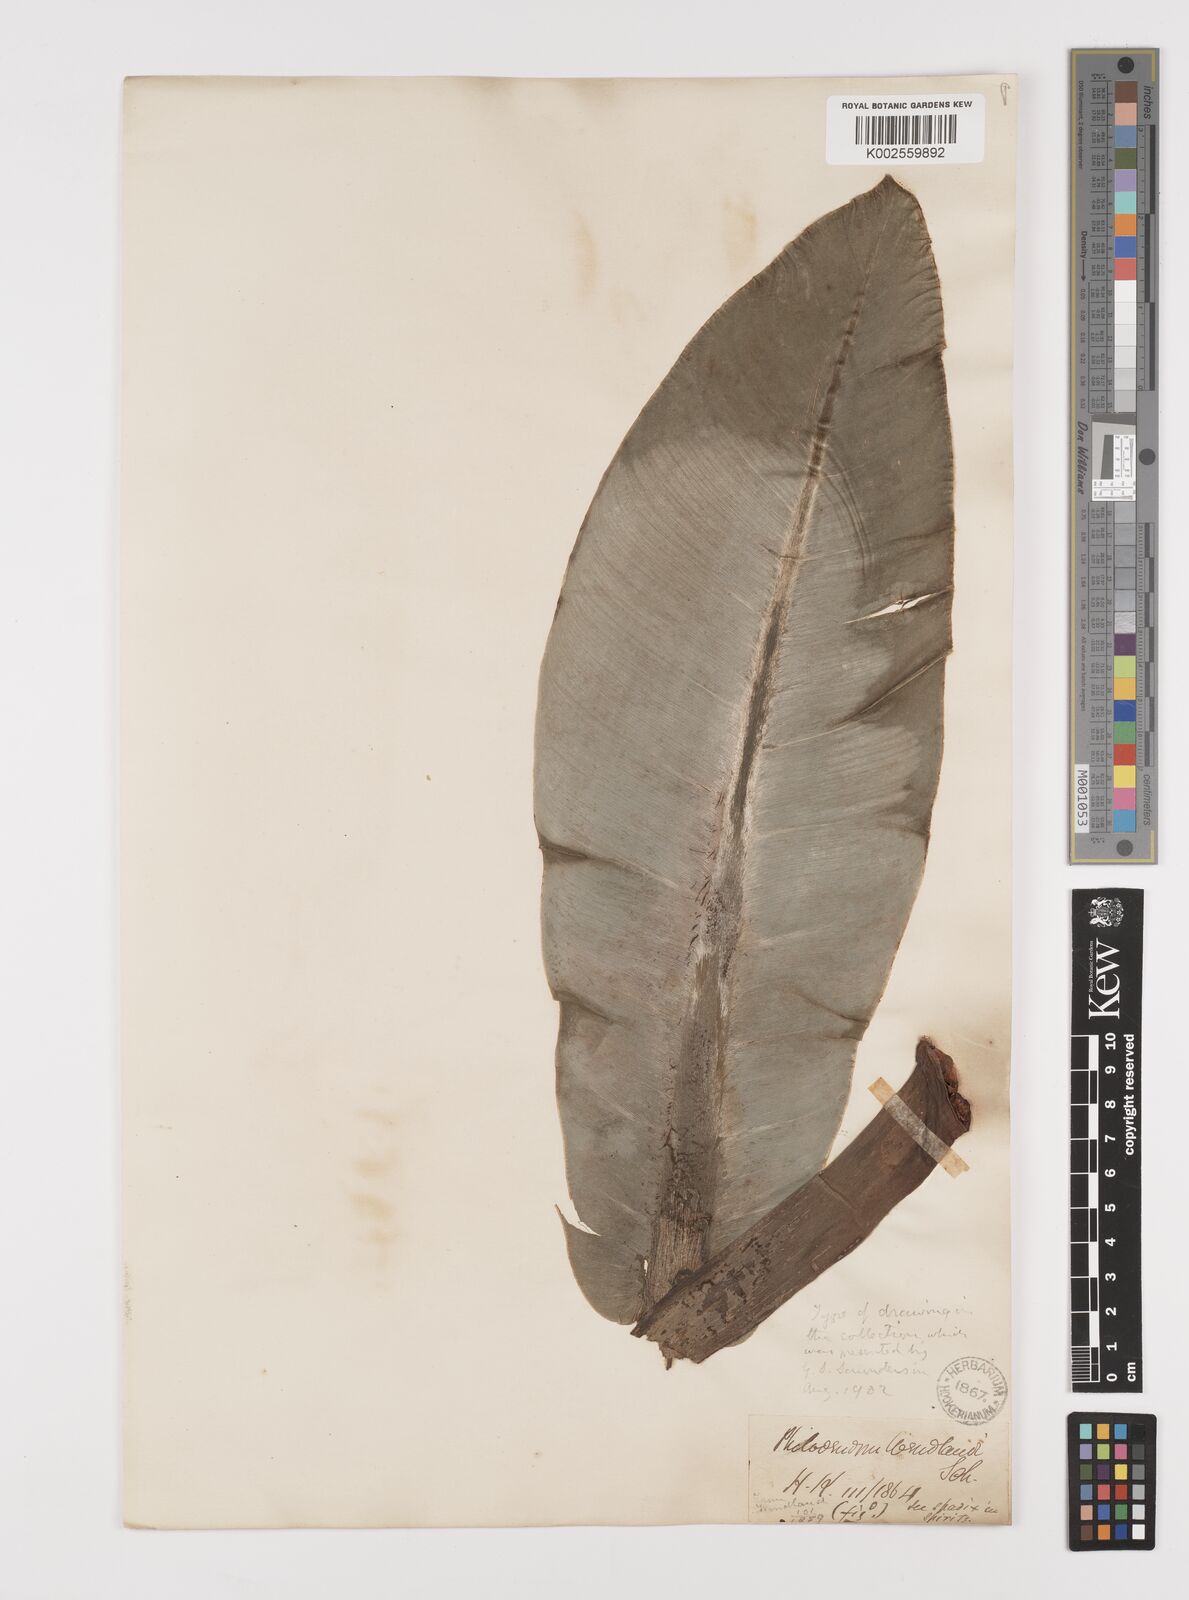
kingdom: Plantae
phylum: Tracheophyta
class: Liliopsida
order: Alismatales
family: Araceae
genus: Philodendron
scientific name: Philodendron wendlandii
